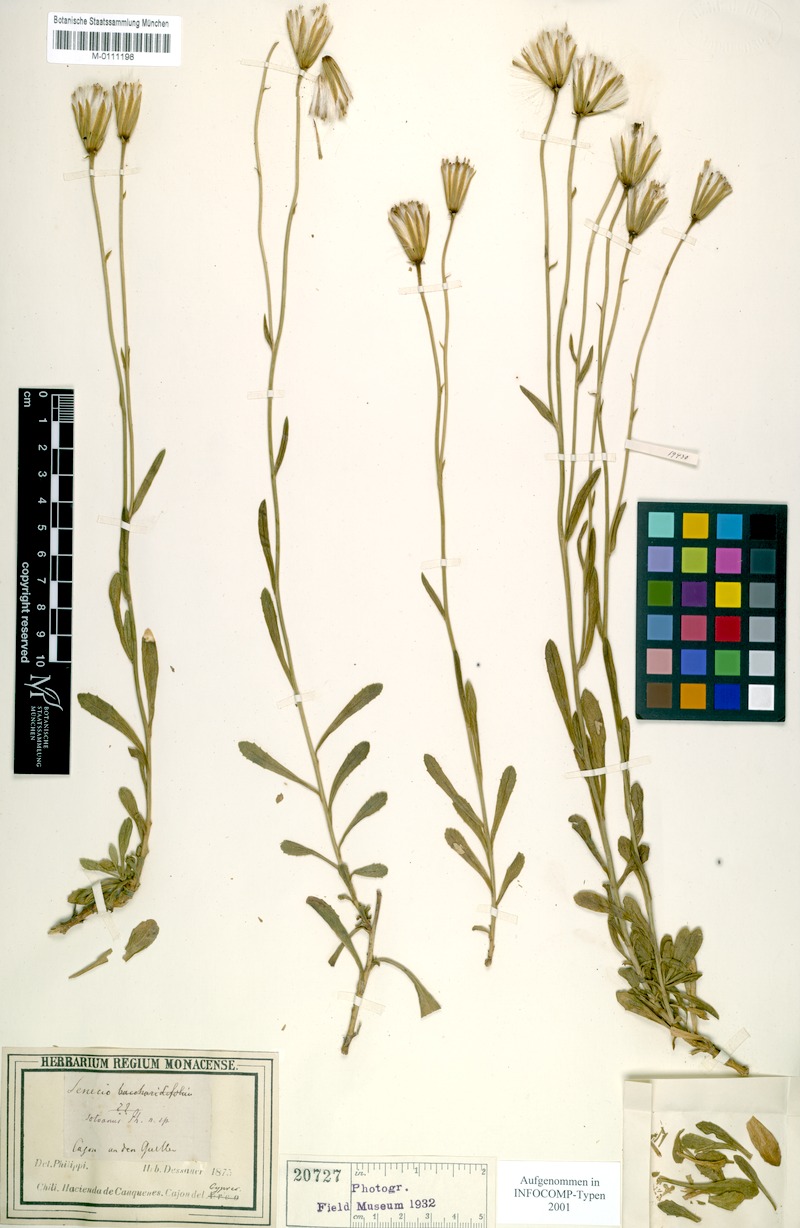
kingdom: Plantae
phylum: Tracheophyta
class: Magnoliopsida
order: Asterales
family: Asteraceae
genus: Senecio
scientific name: Senecio gayanus
